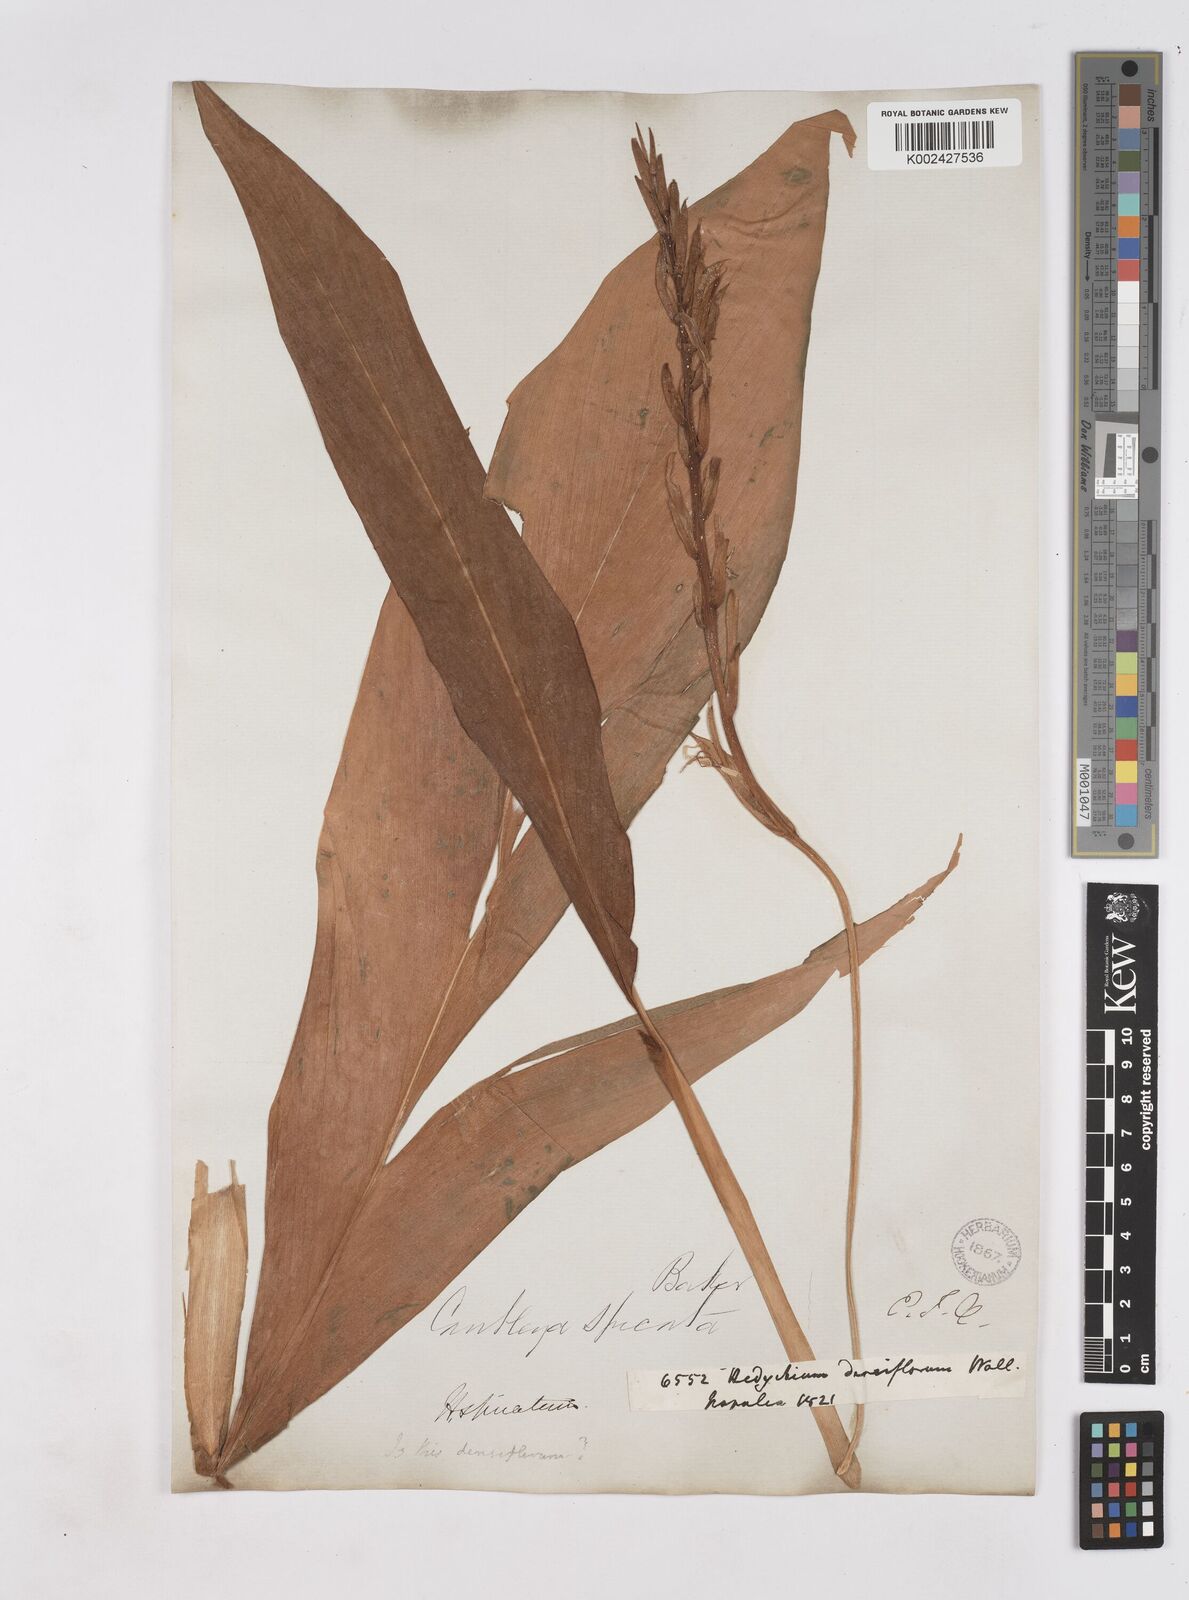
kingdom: Plantae
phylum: Tracheophyta
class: Liliopsida
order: Zingiberales
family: Zingiberaceae
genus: Cautleya
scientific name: Cautleya spicata
